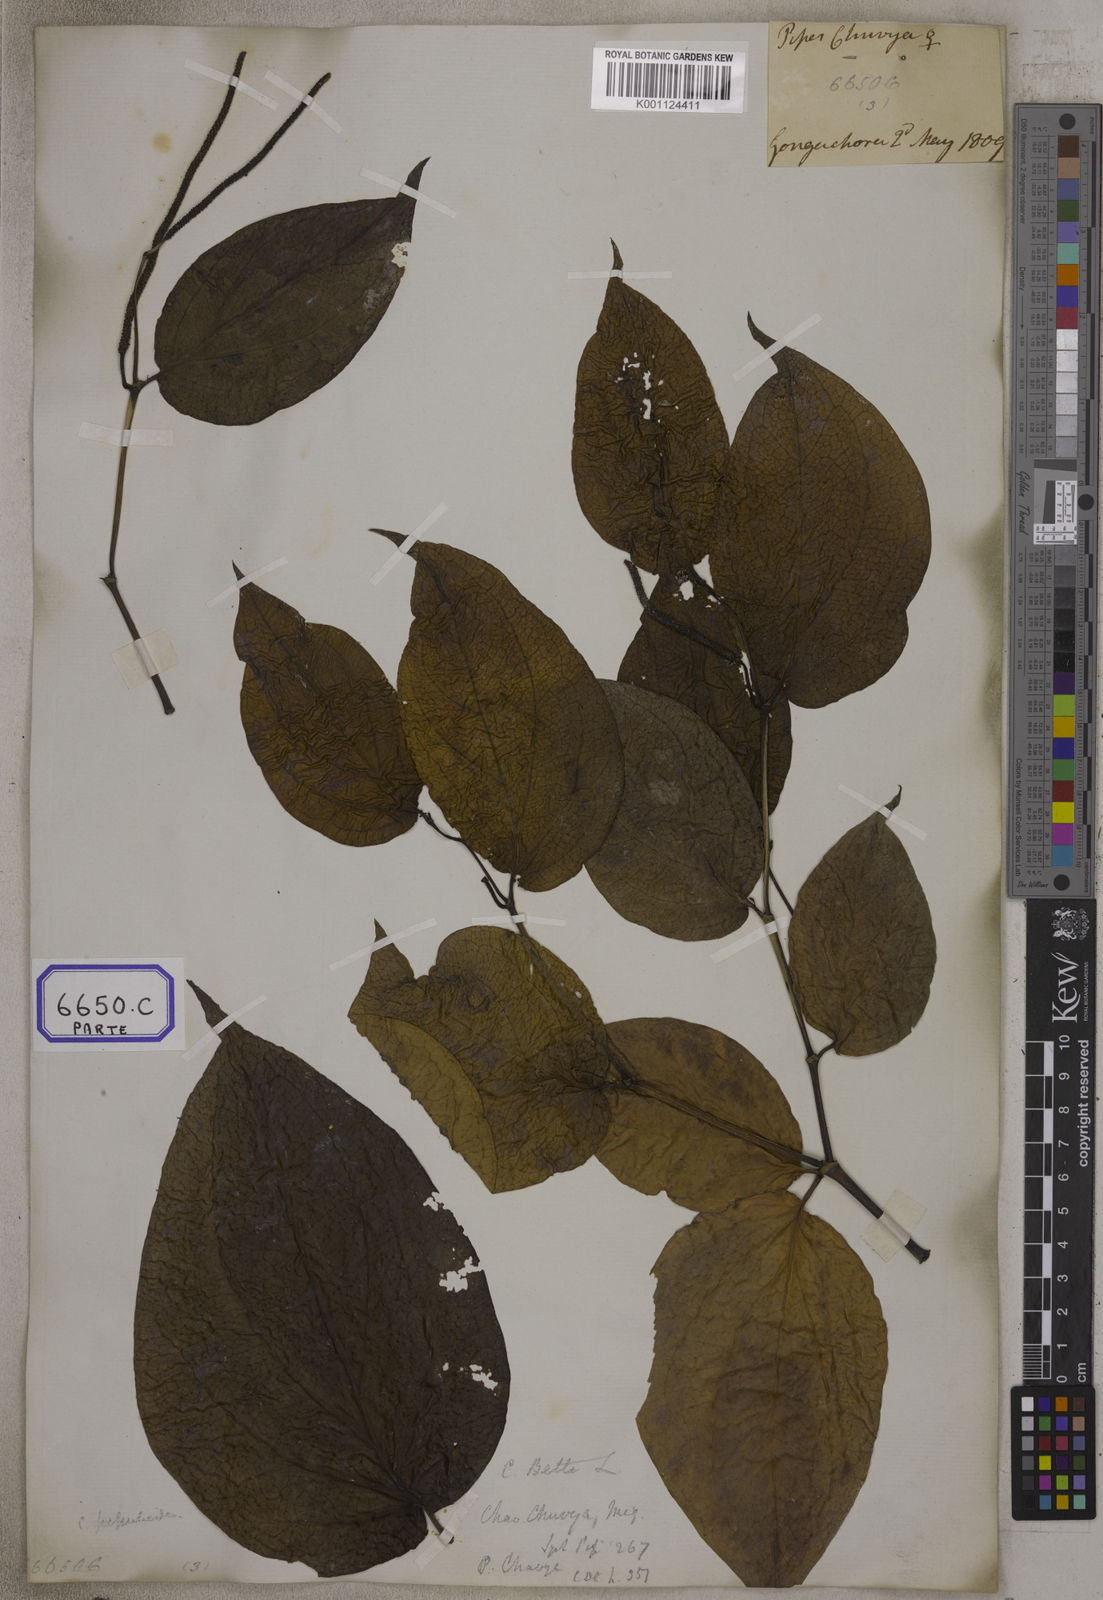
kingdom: Plantae
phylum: Tracheophyta
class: Magnoliopsida
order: Piperales
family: Piperaceae
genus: Piper
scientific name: Piper
